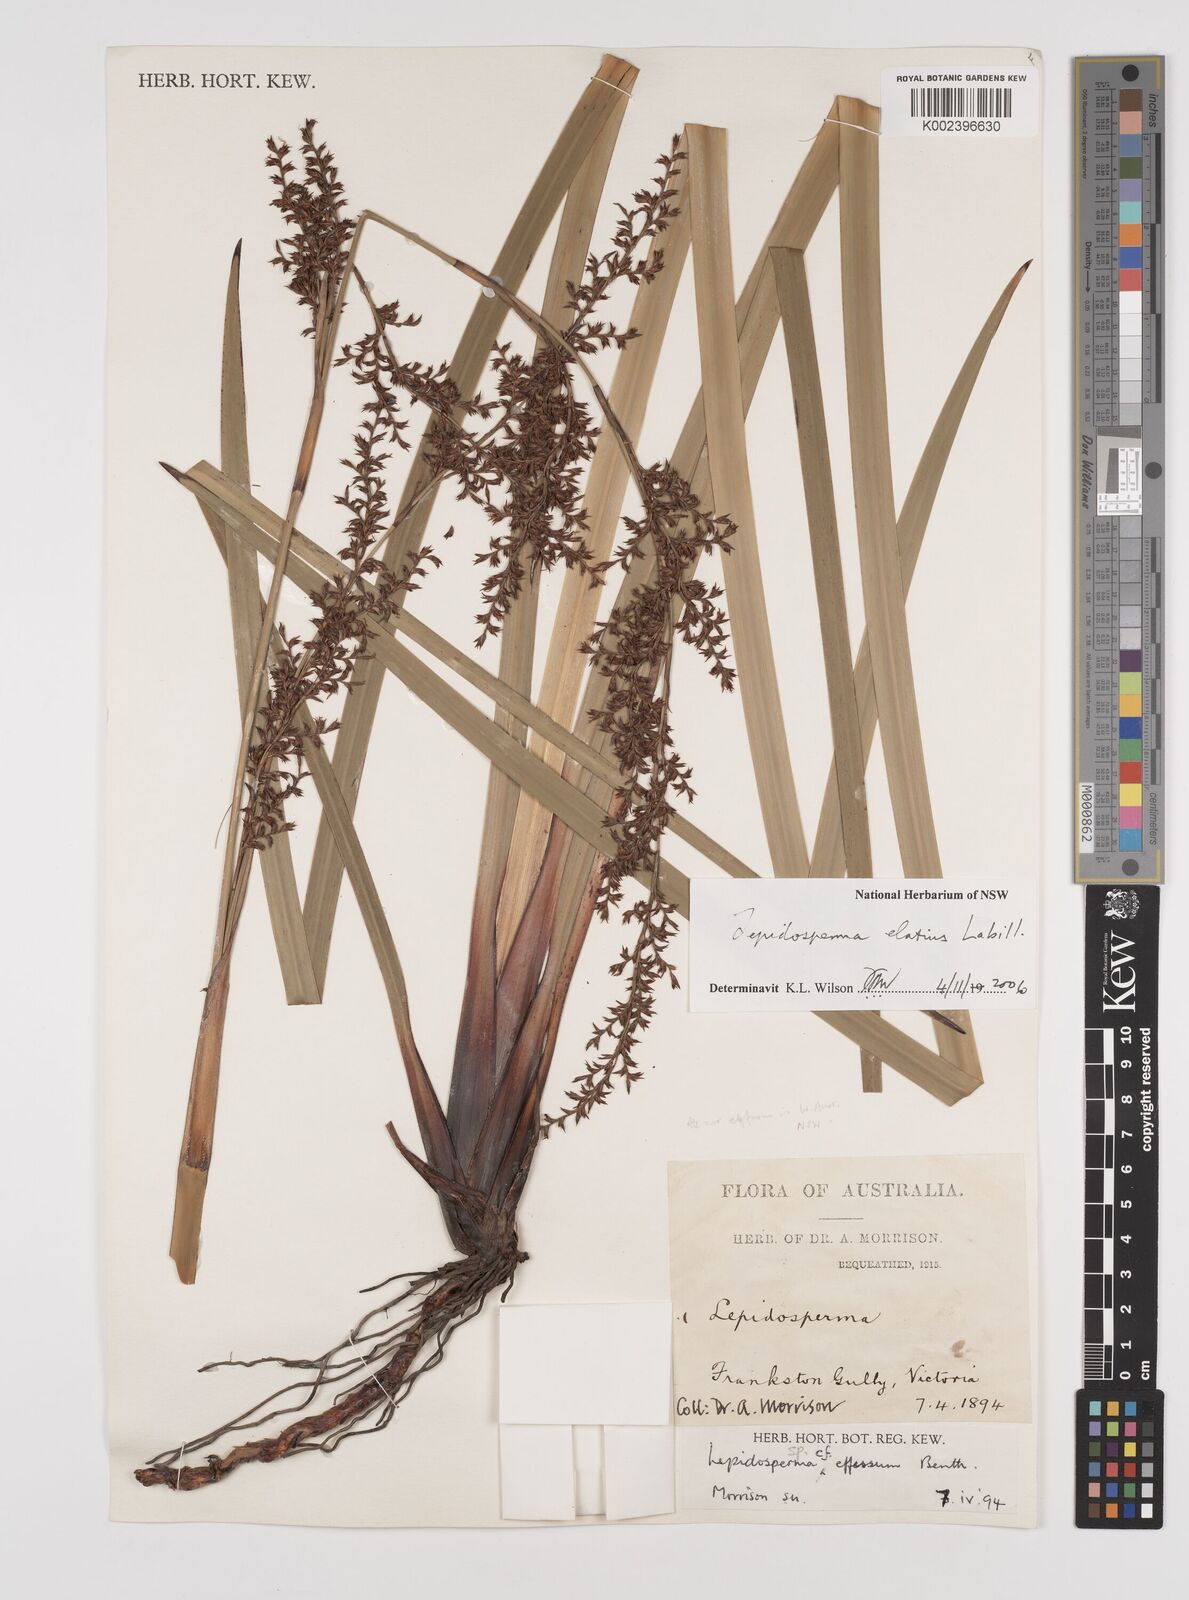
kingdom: Plantae
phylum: Tracheophyta
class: Liliopsida
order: Poales
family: Cyperaceae
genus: Lepidosperma
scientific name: Lepidosperma elatius
